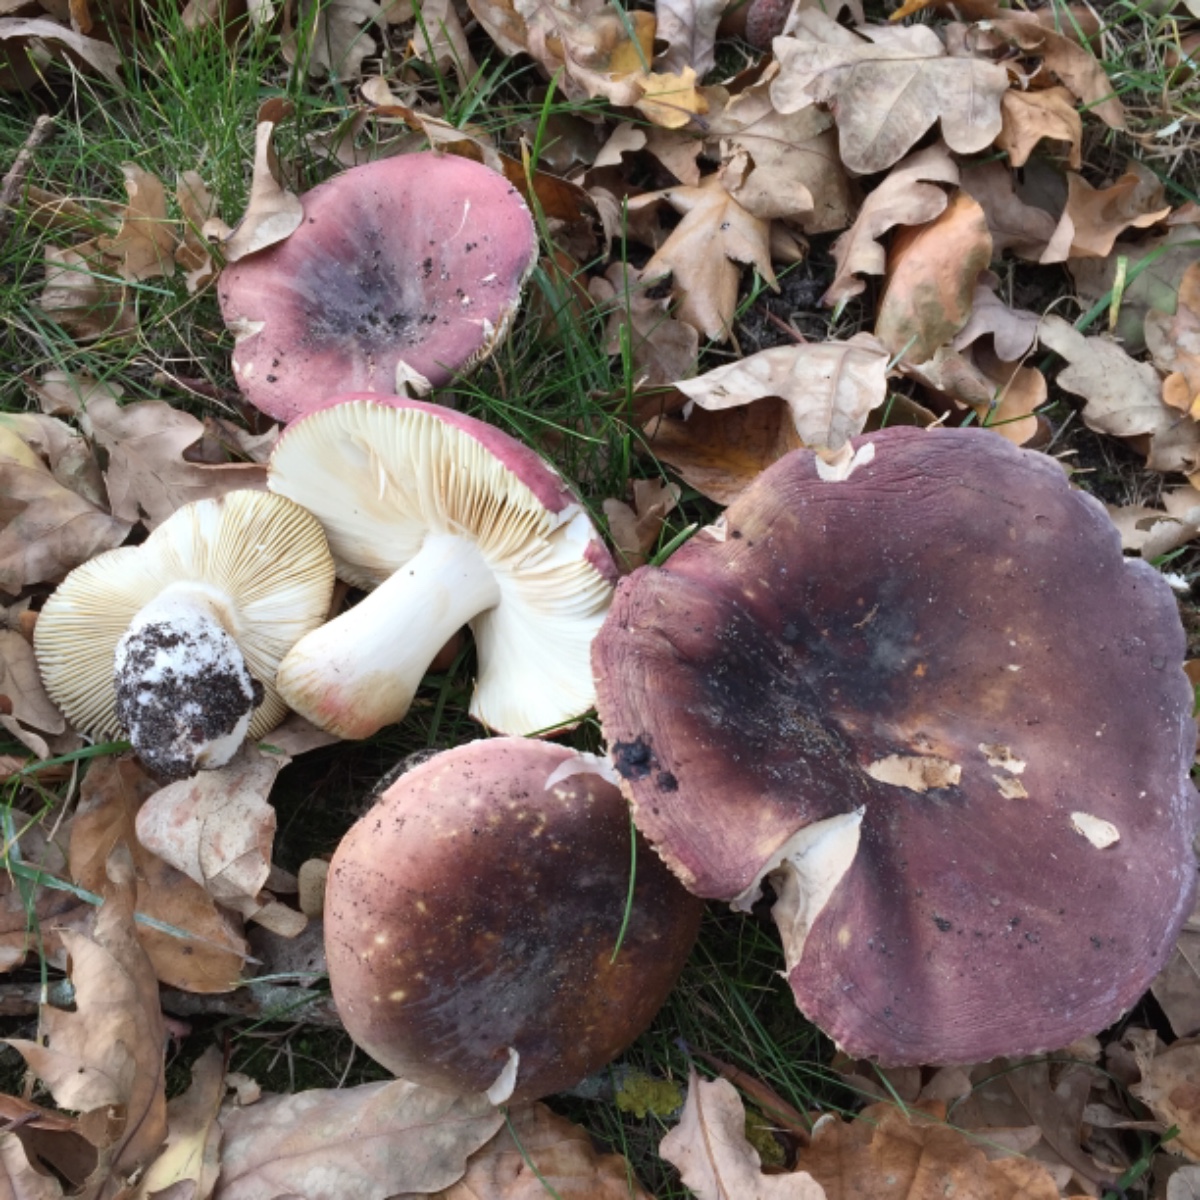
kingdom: Fungi
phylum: Basidiomycota
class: Agaricomycetes
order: Russulales
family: Russulaceae
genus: Russula
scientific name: Russula graveolens
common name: bugtet skørhat
